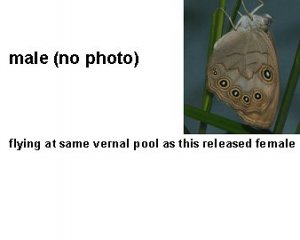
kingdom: Animalia
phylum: Arthropoda
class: Insecta
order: Lepidoptera
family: Nymphalidae
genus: Lethe
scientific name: Lethe eurydice
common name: Appalachian Eyed Brown
